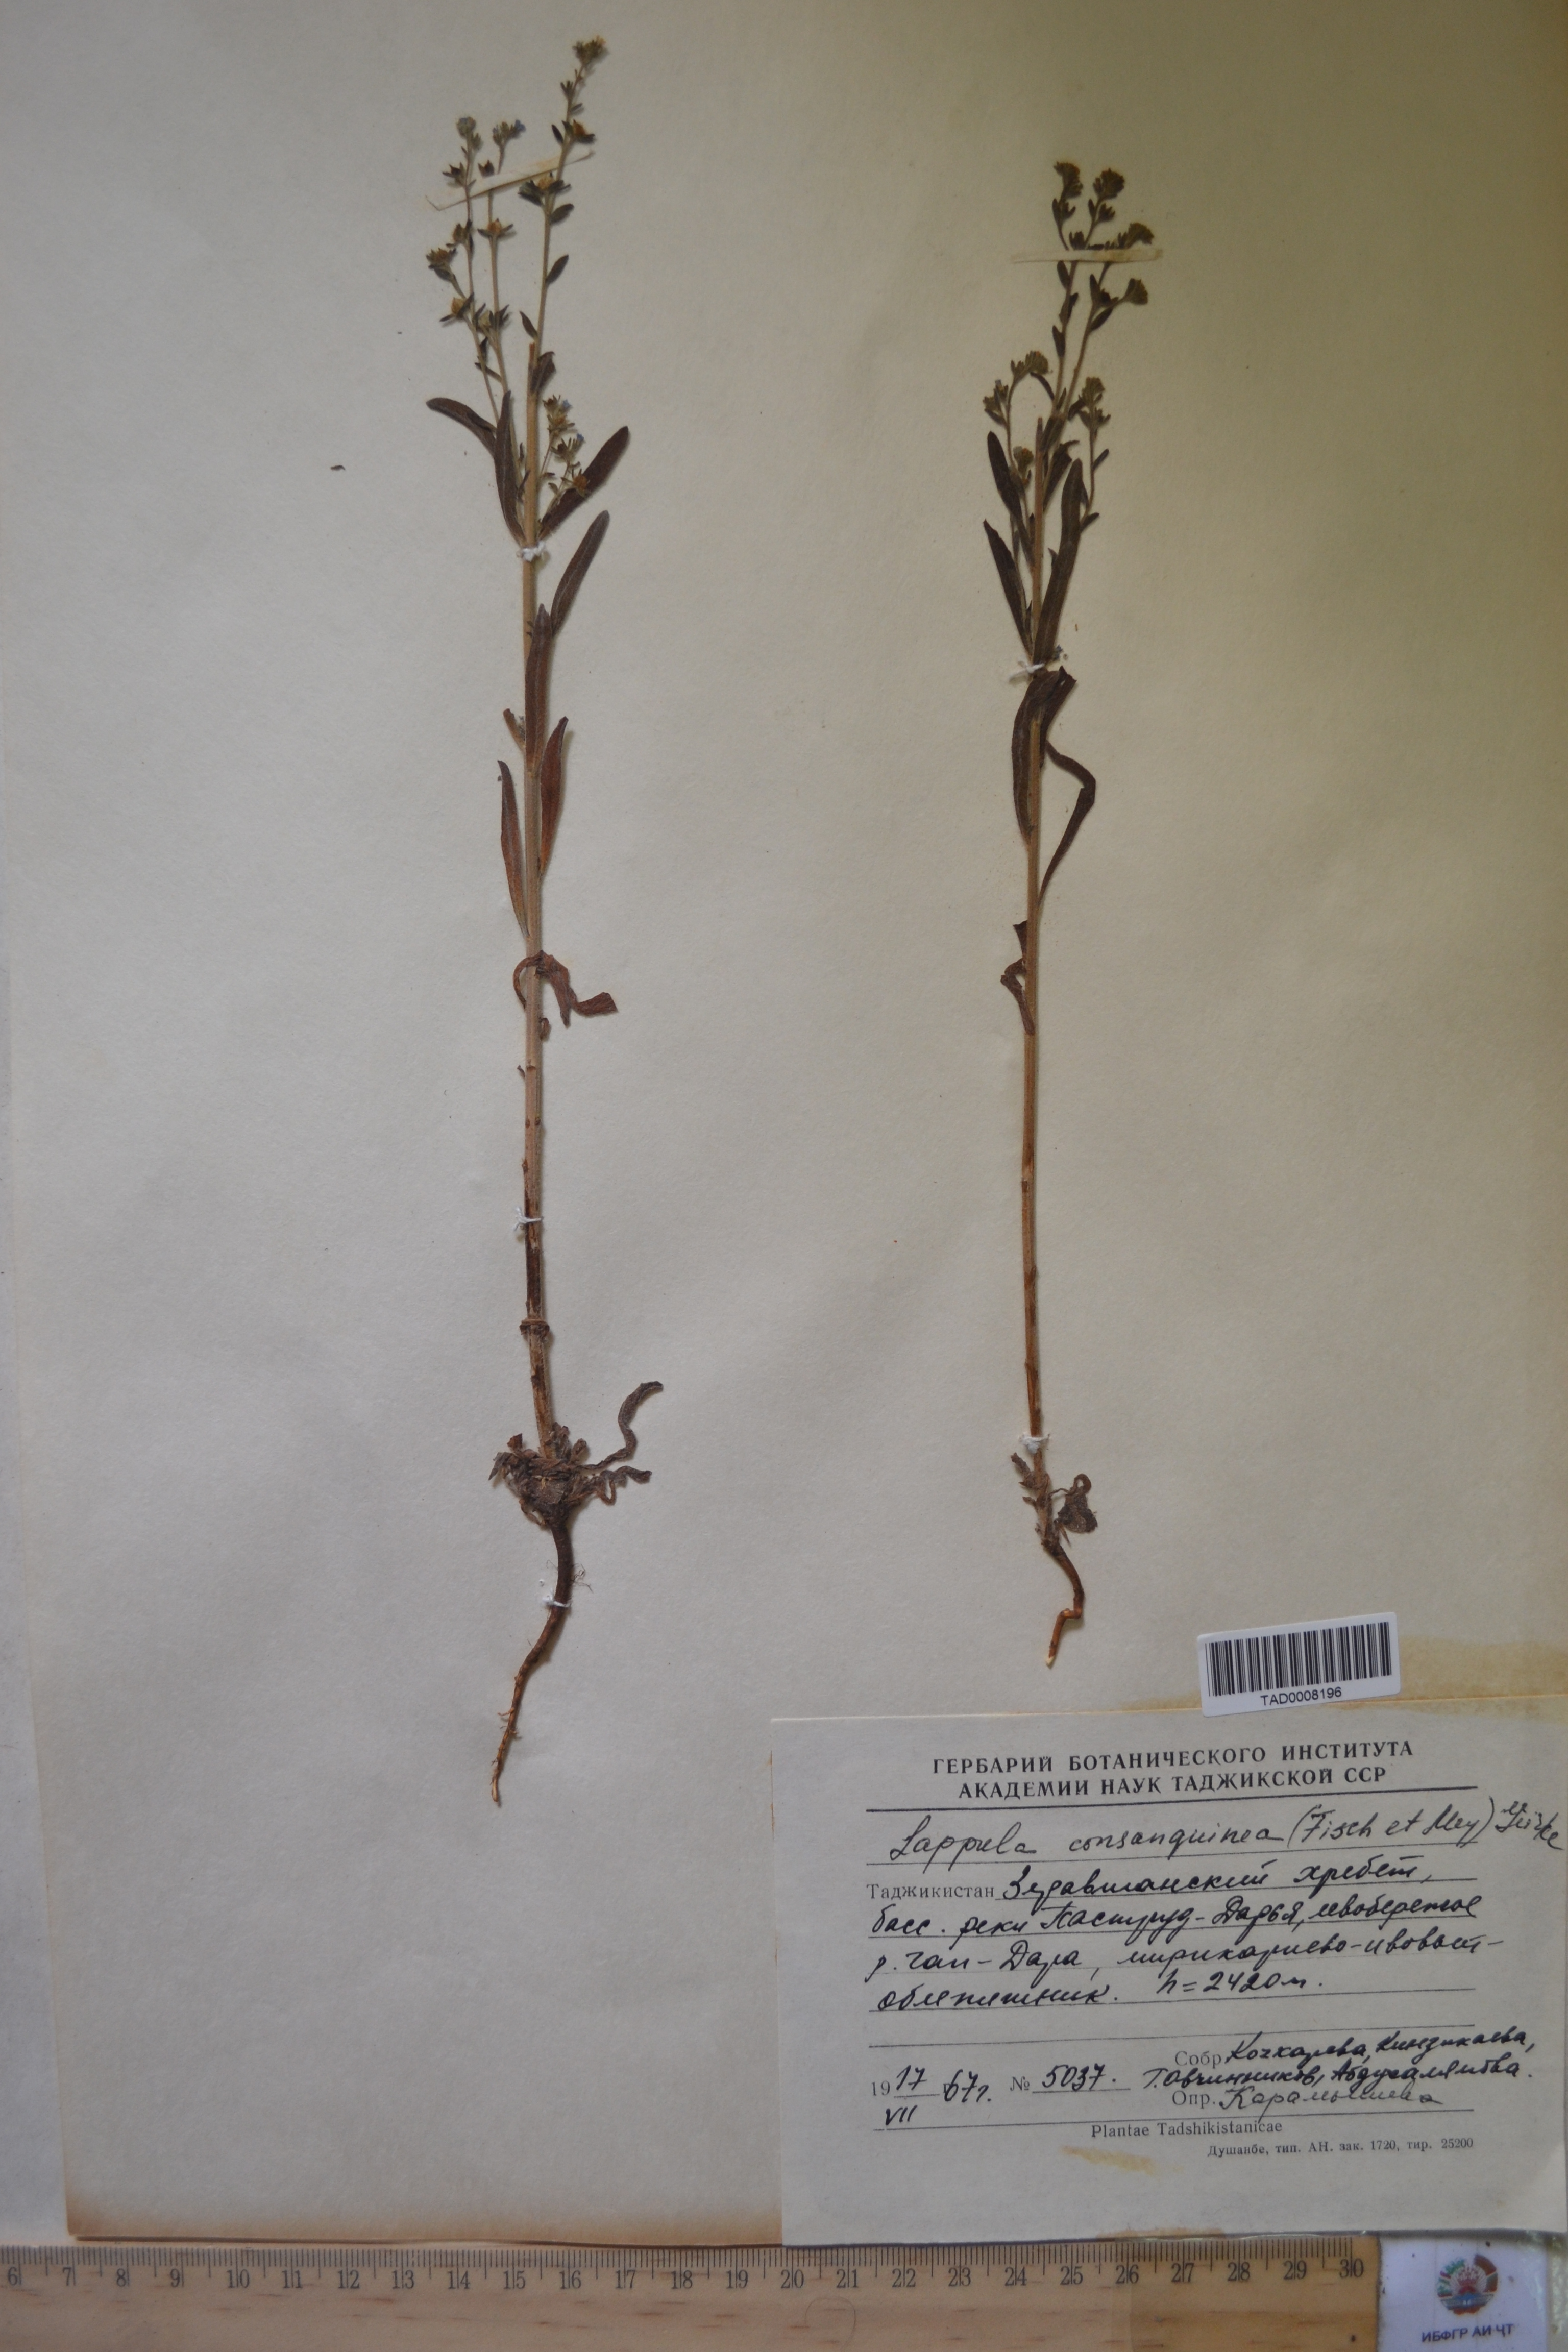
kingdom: Plantae
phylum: Tracheophyta
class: Magnoliopsida
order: Boraginales
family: Boraginaceae
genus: Lappula
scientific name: Lappula squarrosa
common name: European stickseed
